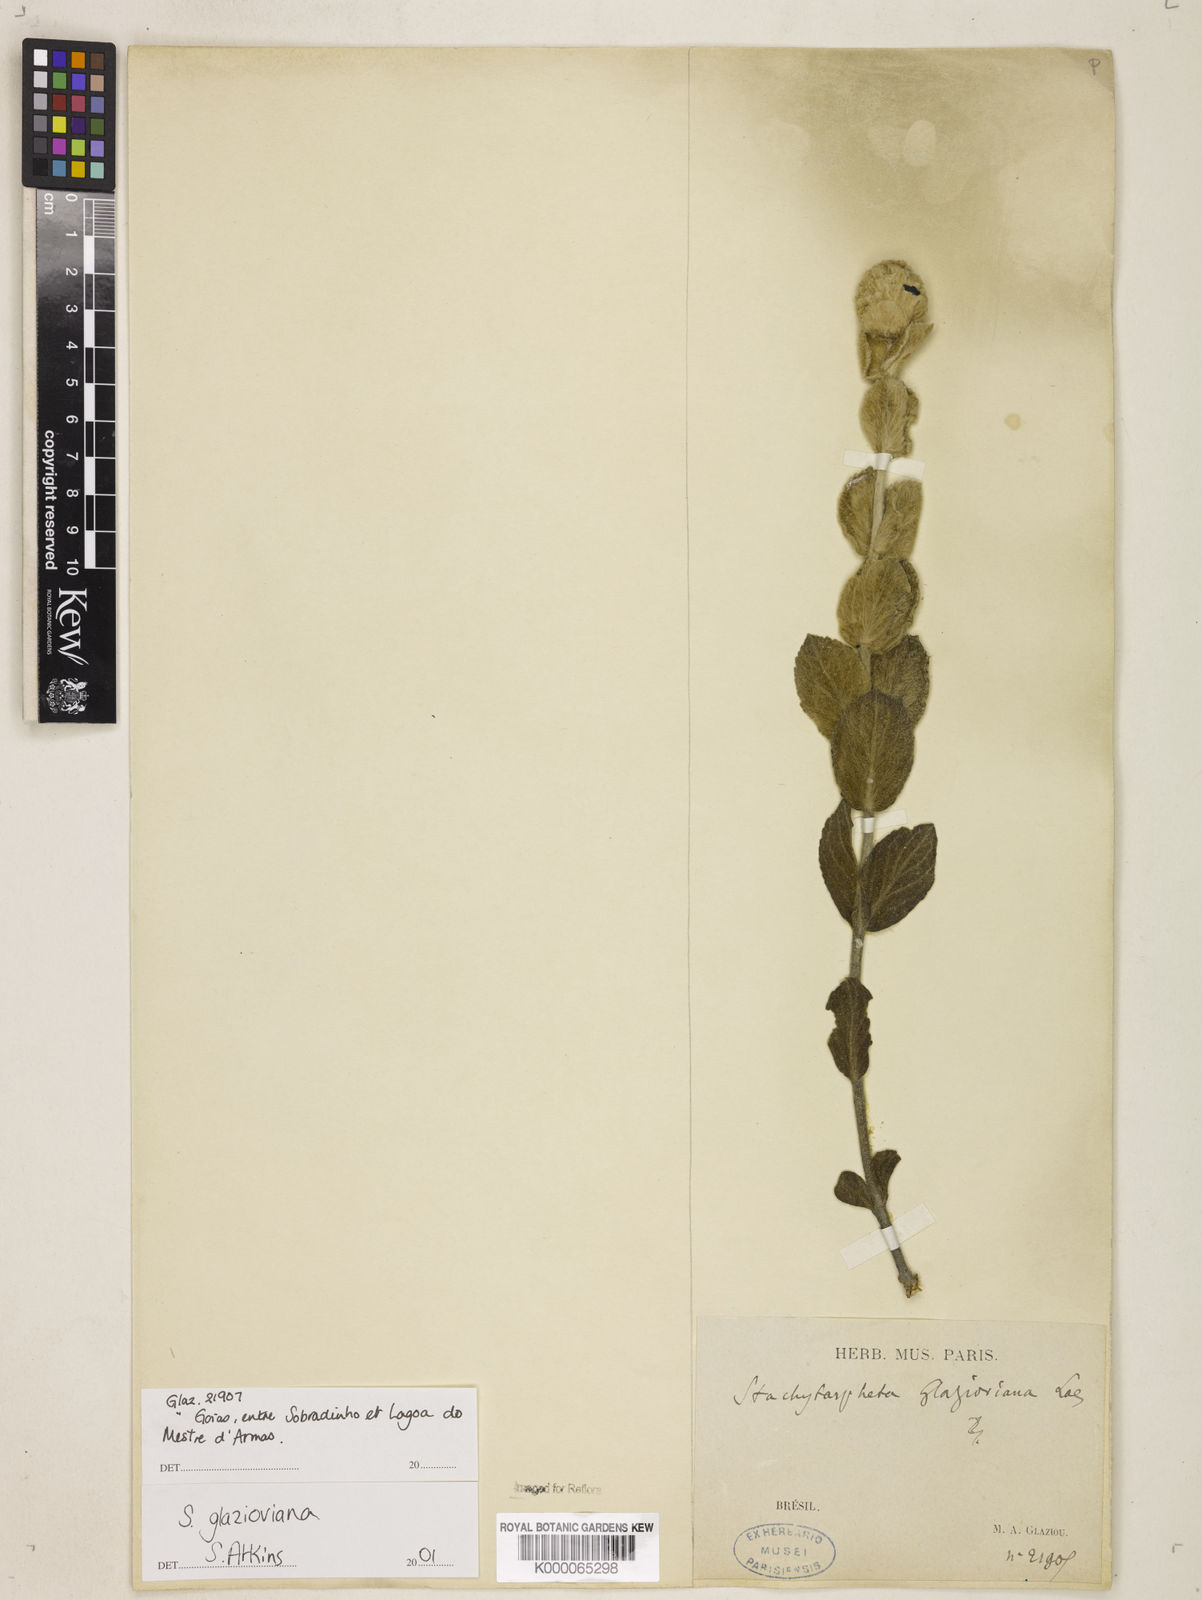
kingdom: Plantae
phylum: Tracheophyta
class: Magnoliopsida
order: Lamiales
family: Verbenaceae
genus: Stachytarpheta
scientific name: Stachytarpheta
